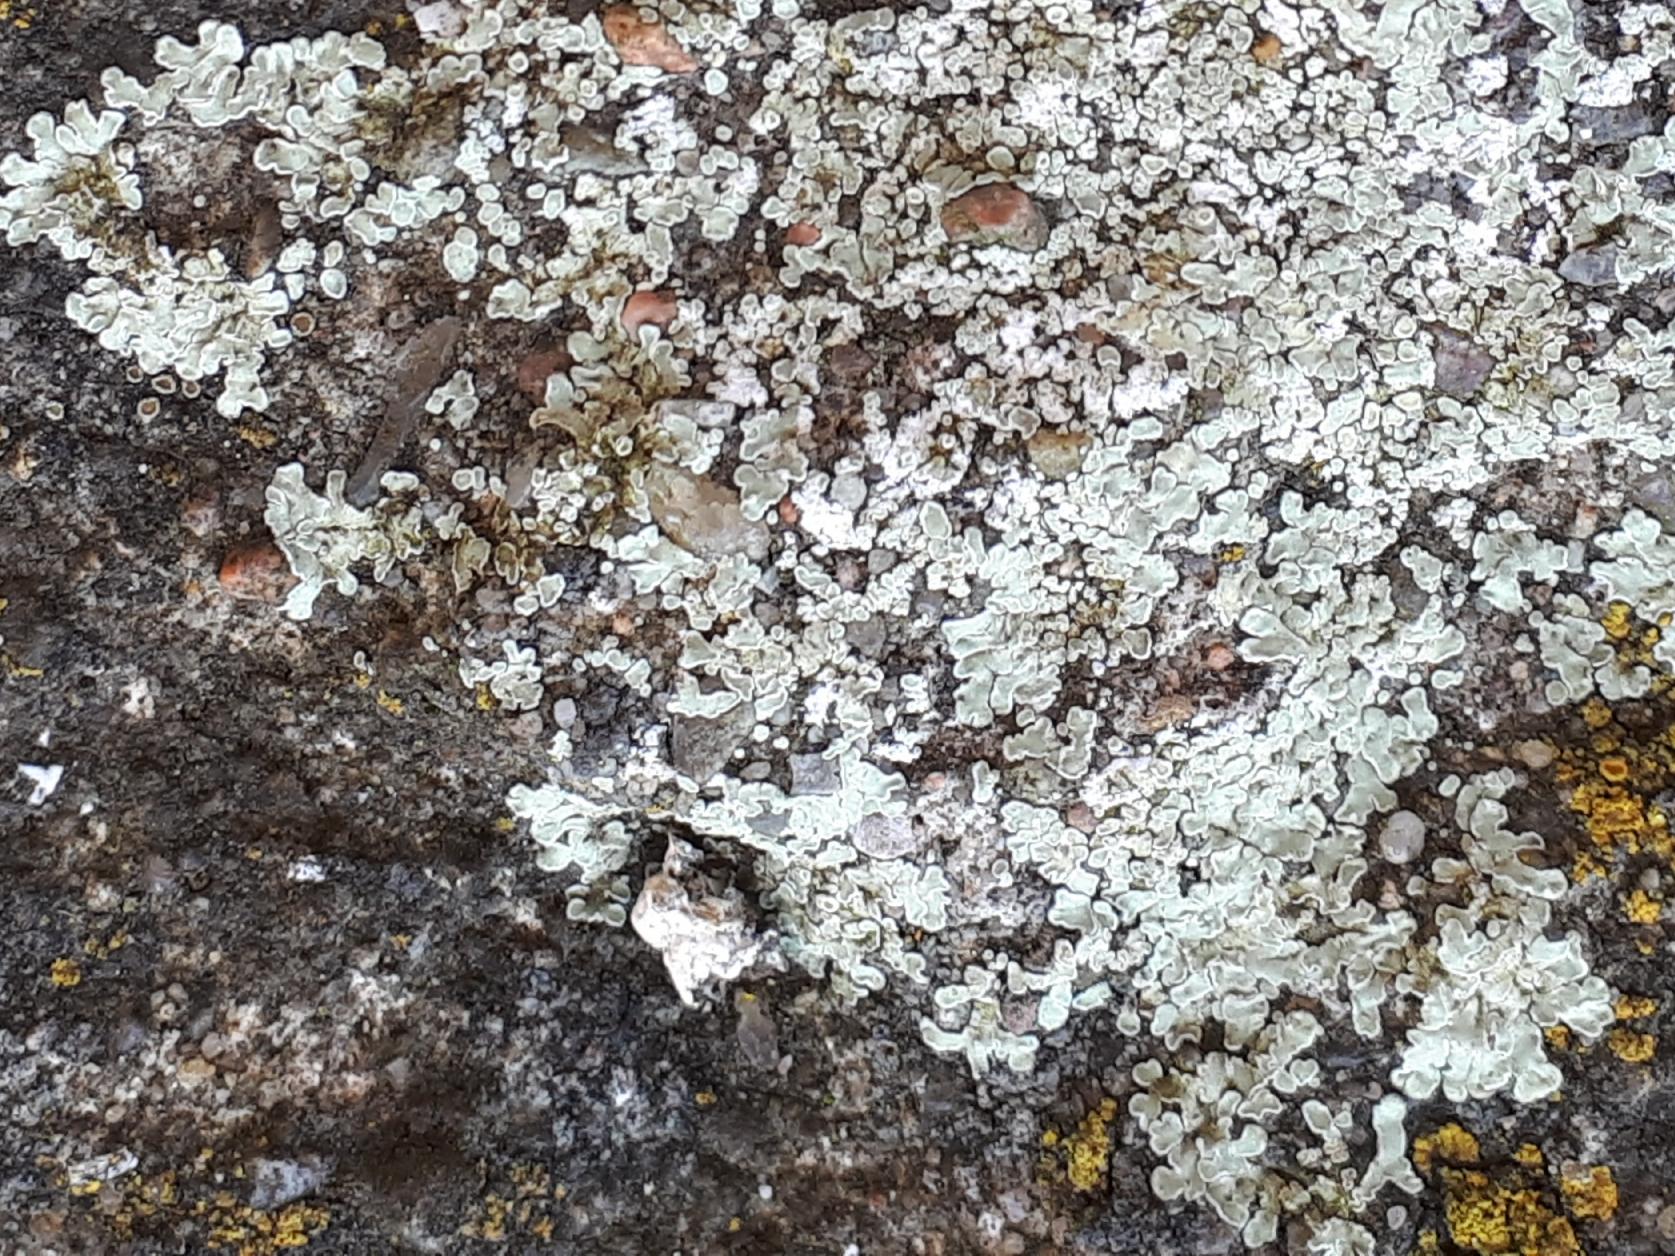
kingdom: Fungi
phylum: Ascomycota
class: Lecanoromycetes
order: Lecanorales
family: Lecanoraceae
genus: Protoparmeliopsis
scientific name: Protoparmeliopsis muralis
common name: randfliget kantskivelav
